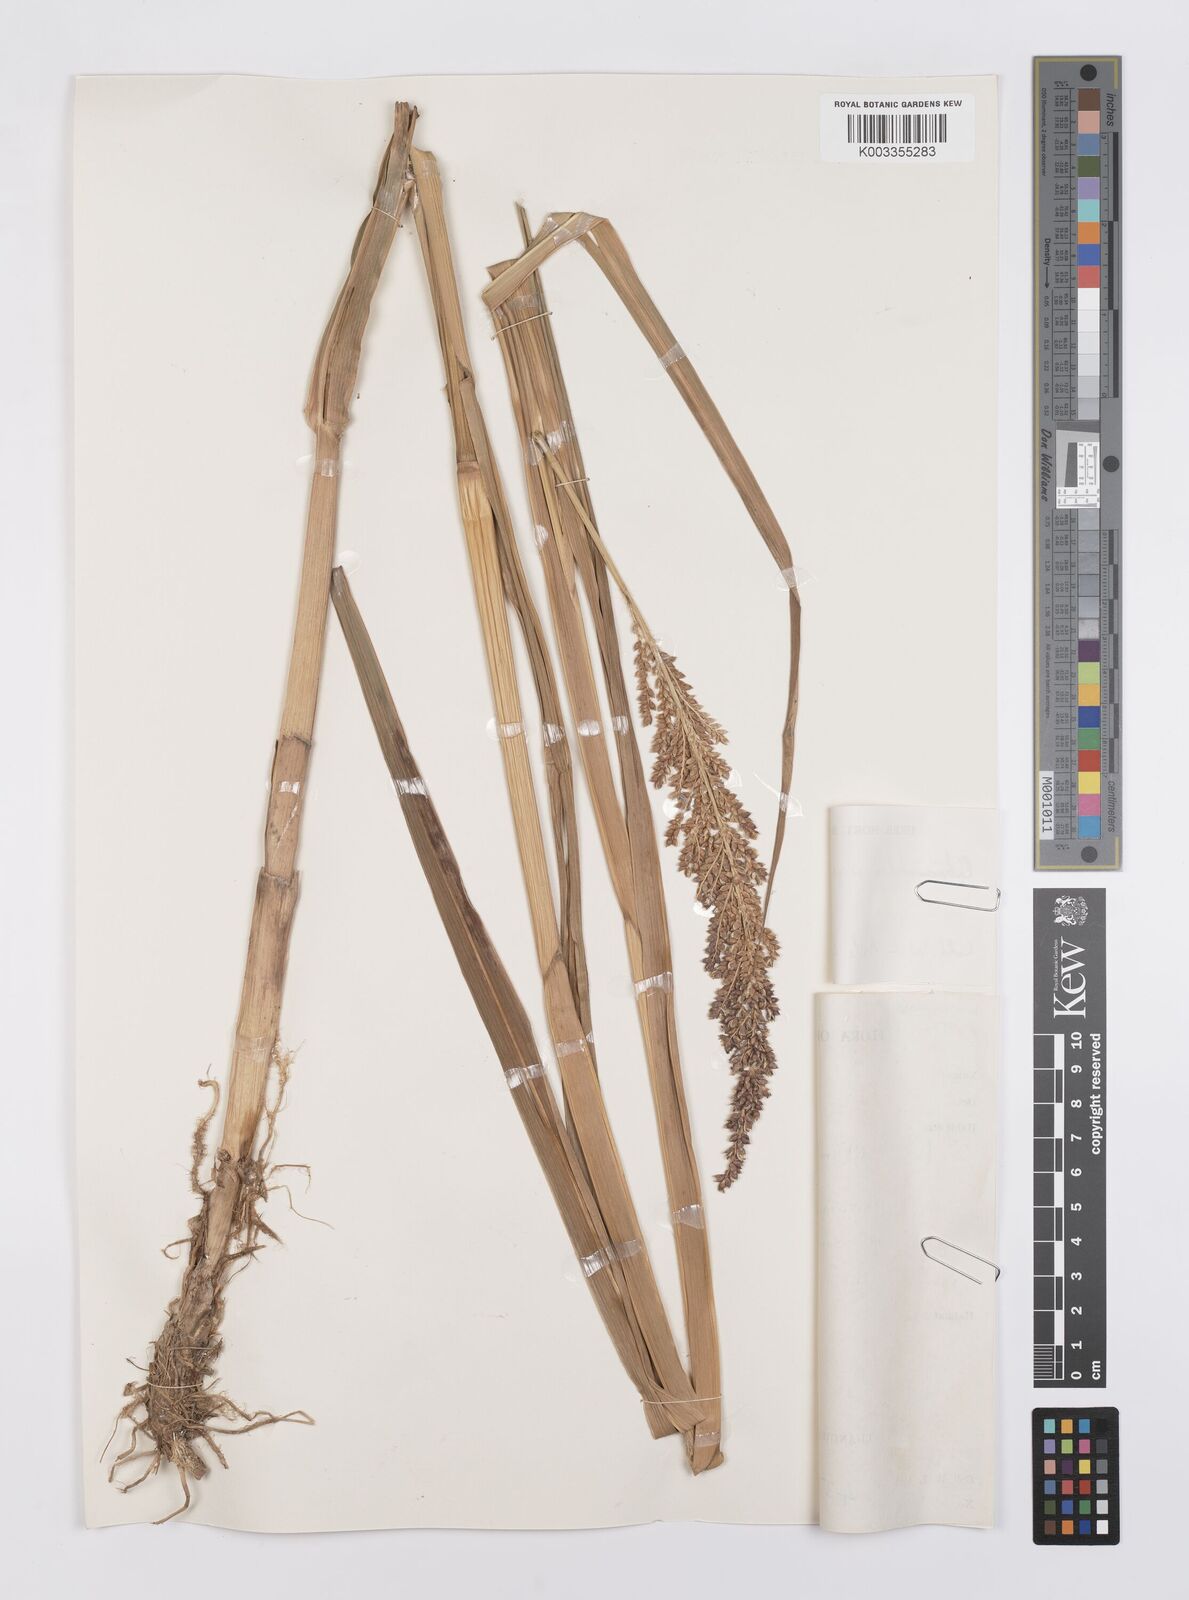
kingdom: Plantae
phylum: Tracheophyta
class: Liliopsida
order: Poales
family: Poaceae
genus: Echinochloa
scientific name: Echinochloa pyramidalis
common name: Antelope grass
